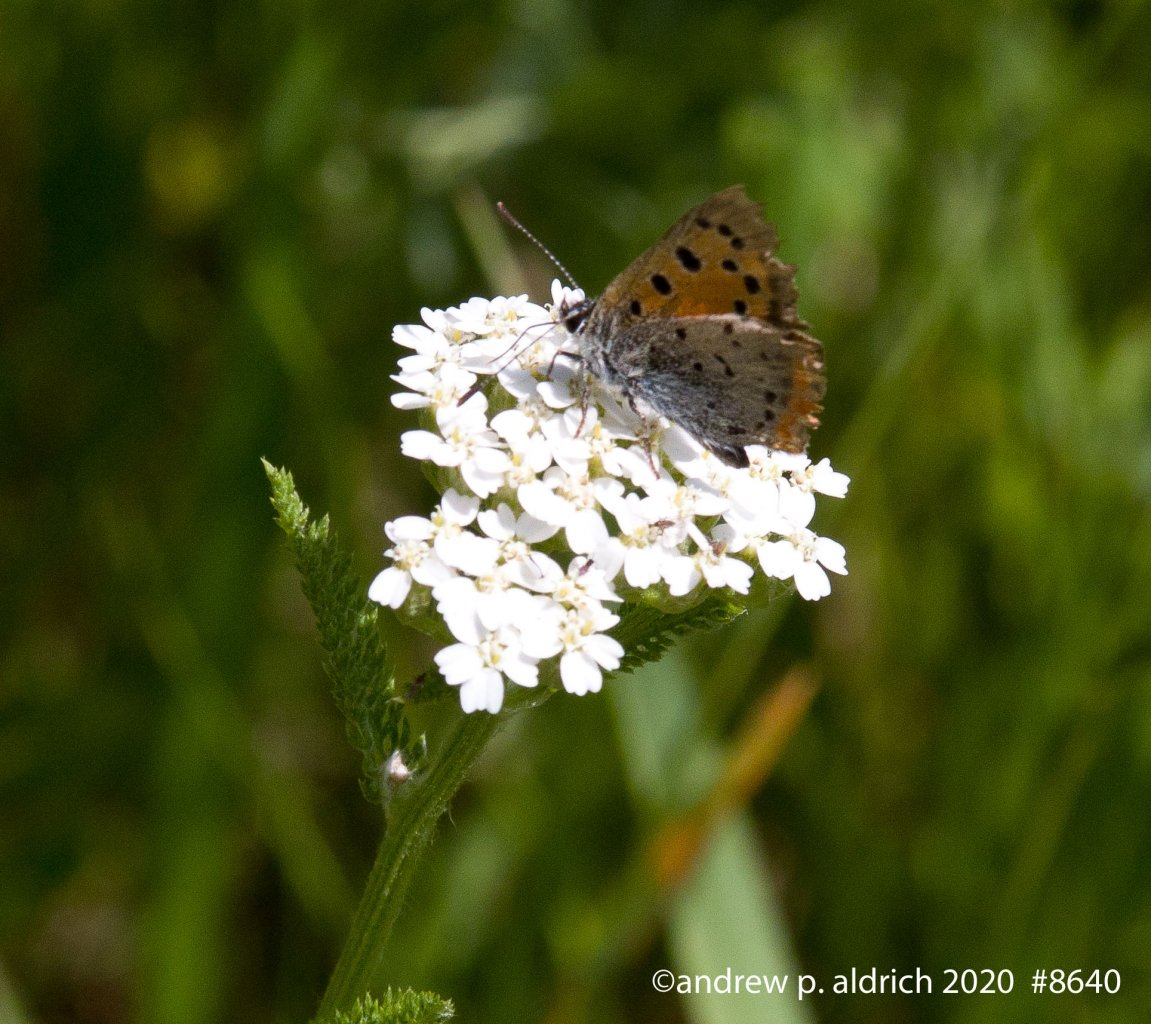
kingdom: Animalia
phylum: Arthropoda
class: Insecta
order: Lepidoptera
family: Lycaenidae
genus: Lycaena
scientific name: Lycaena phlaeas
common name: American Copper
